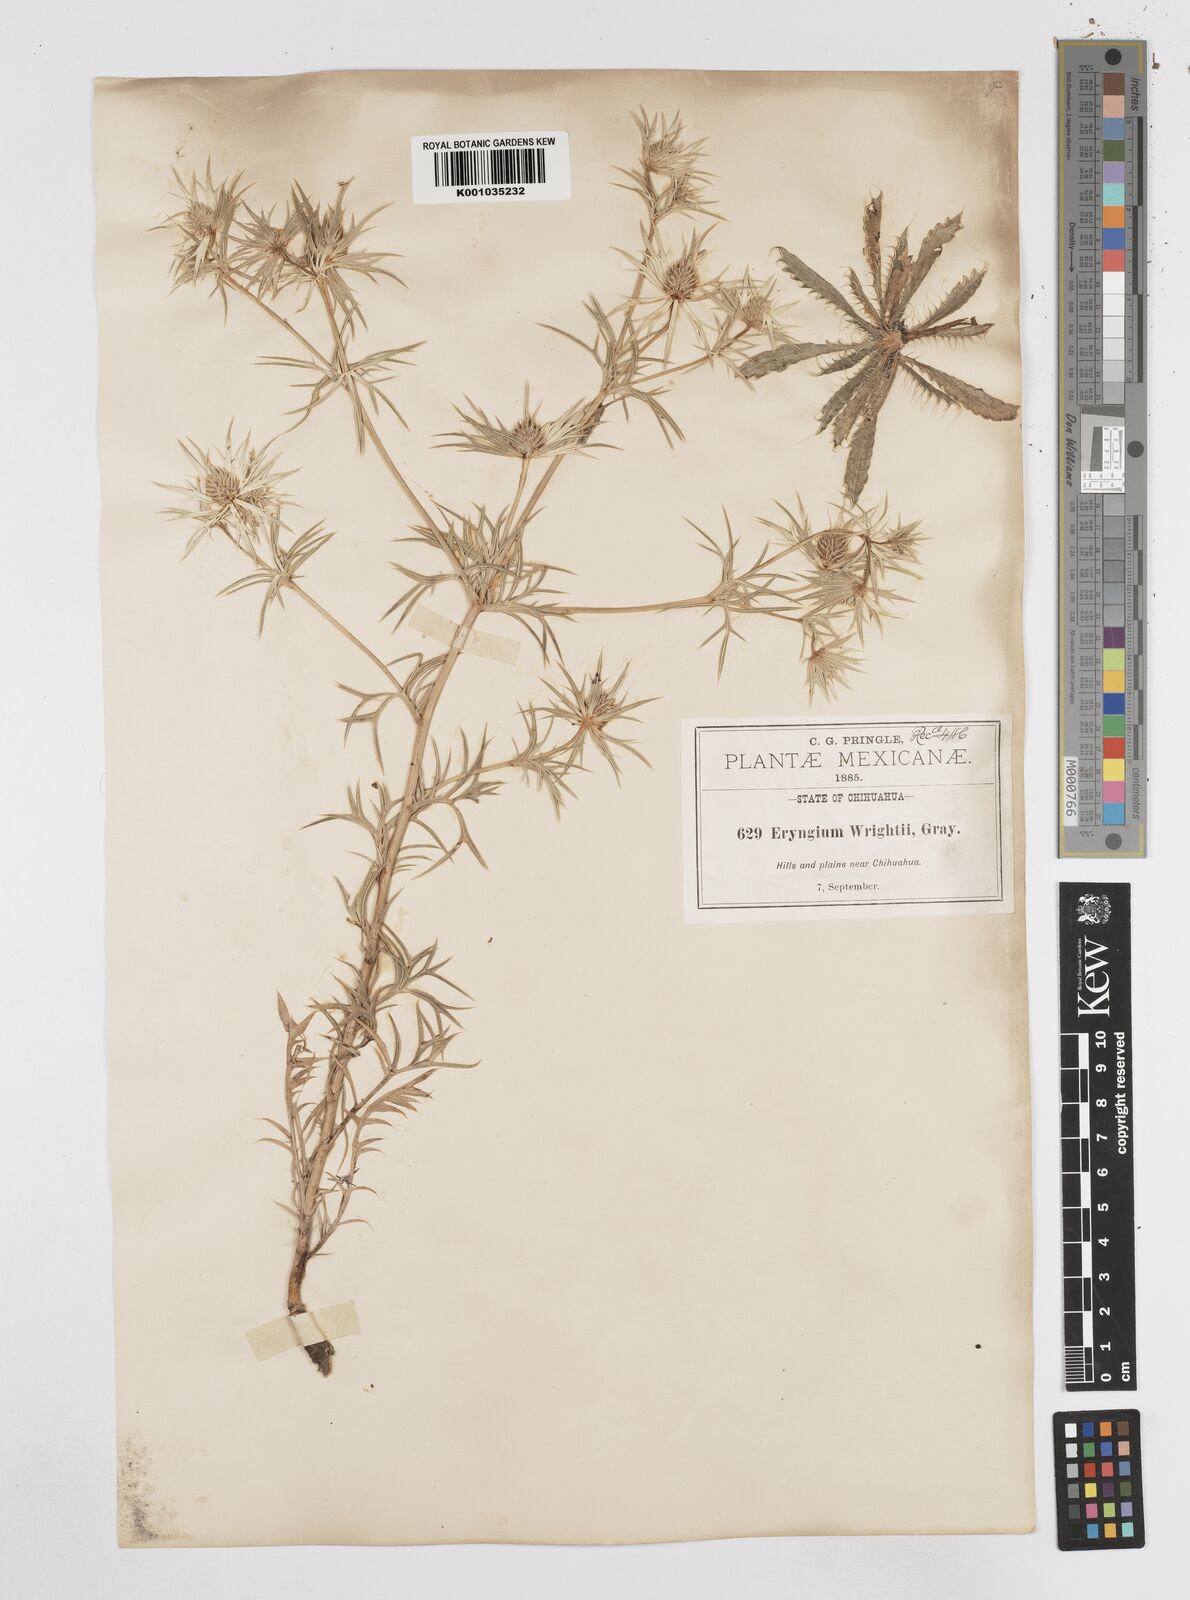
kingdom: Plantae
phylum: Tracheophyta
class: Magnoliopsida
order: Apiales
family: Apiaceae
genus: Eryngium
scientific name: Eryngium heterophyllum
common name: Mexican thistle
